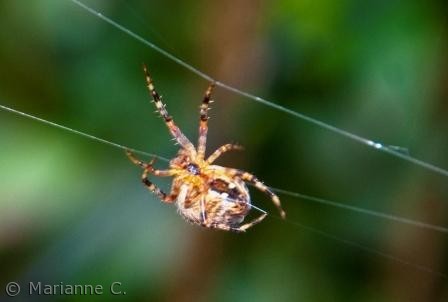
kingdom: Animalia
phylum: Arthropoda
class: Arachnida
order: Araneae
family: Araneidae
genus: Araneus
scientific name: Araneus diadematus
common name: Korsedderkop
